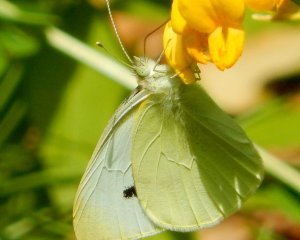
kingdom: Animalia
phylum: Arthropoda
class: Insecta
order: Lepidoptera
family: Pieridae
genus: Pieris
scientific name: Pieris rapae
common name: Cabbage White
